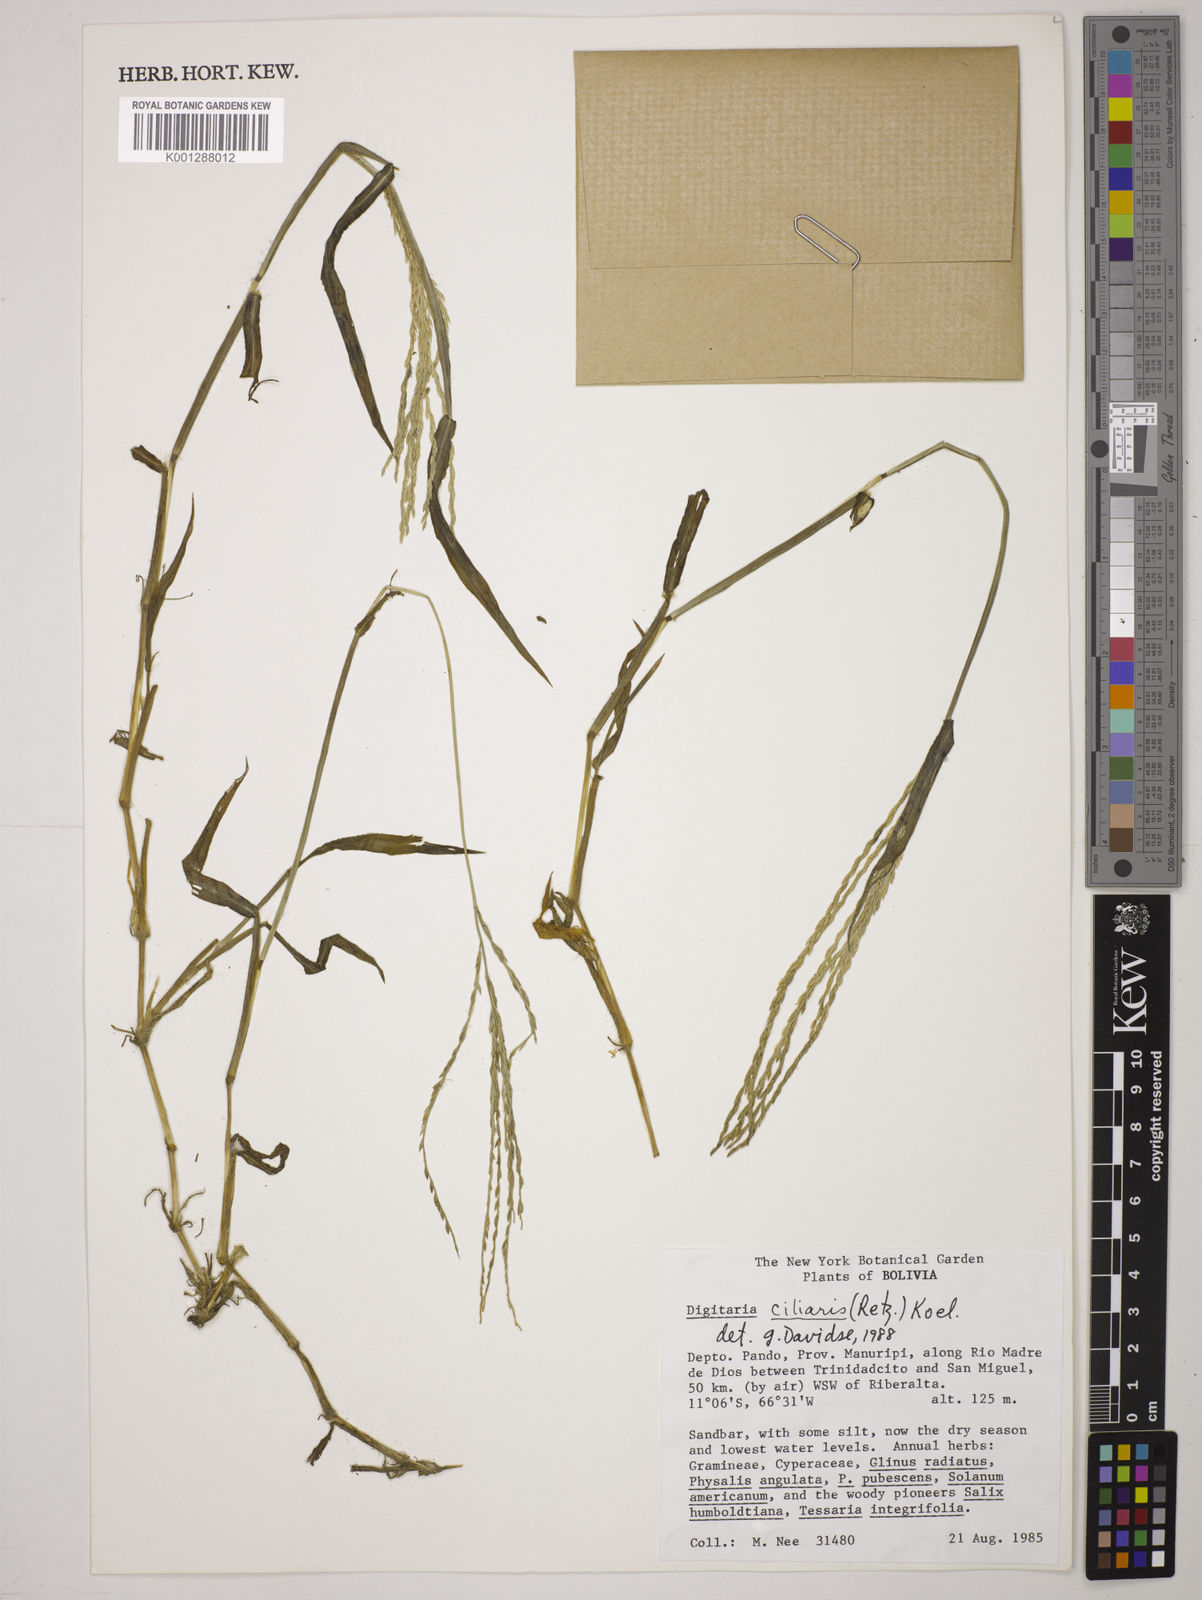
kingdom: Plantae
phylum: Tracheophyta
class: Liliopsida
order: Poales
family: Poaceae
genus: Digitaria
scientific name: Digitaria
